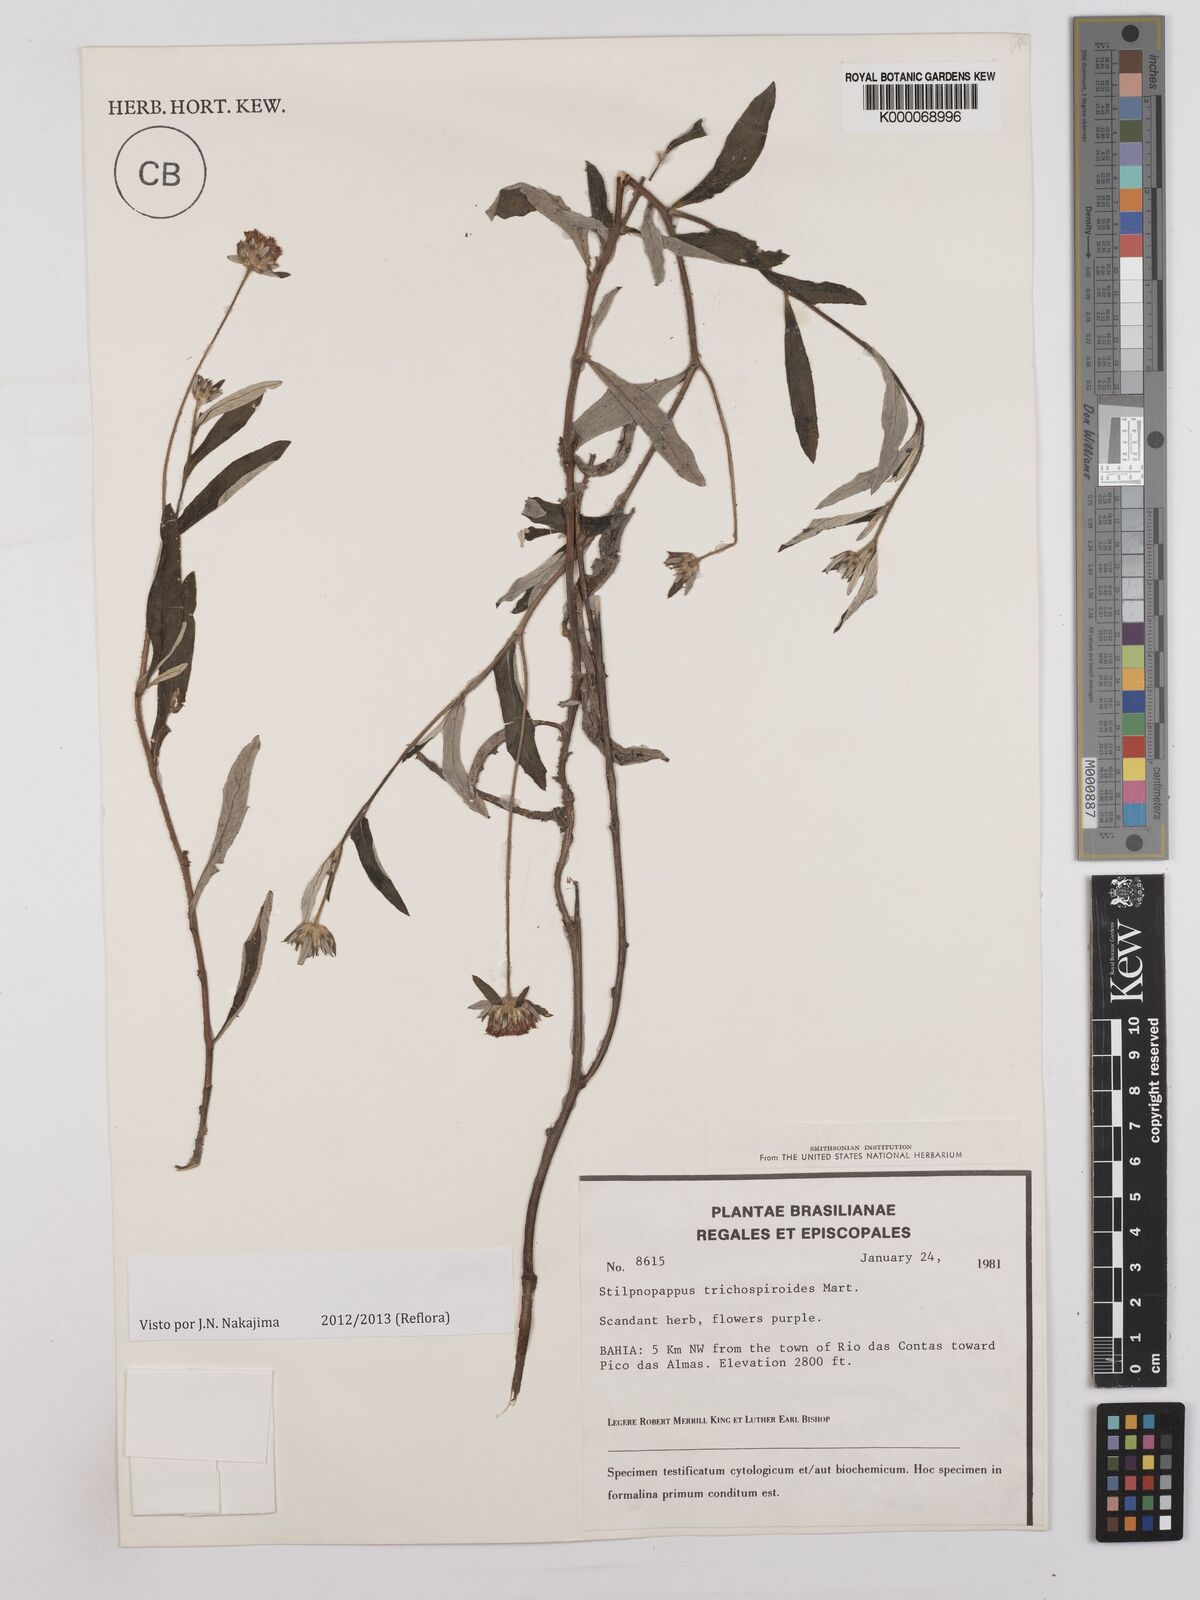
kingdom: Plantae
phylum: Tracheophyta
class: Magnoliopsida
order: Asterales
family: Asteraceae
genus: Stilpnopappus
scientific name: Stilpnopappus
